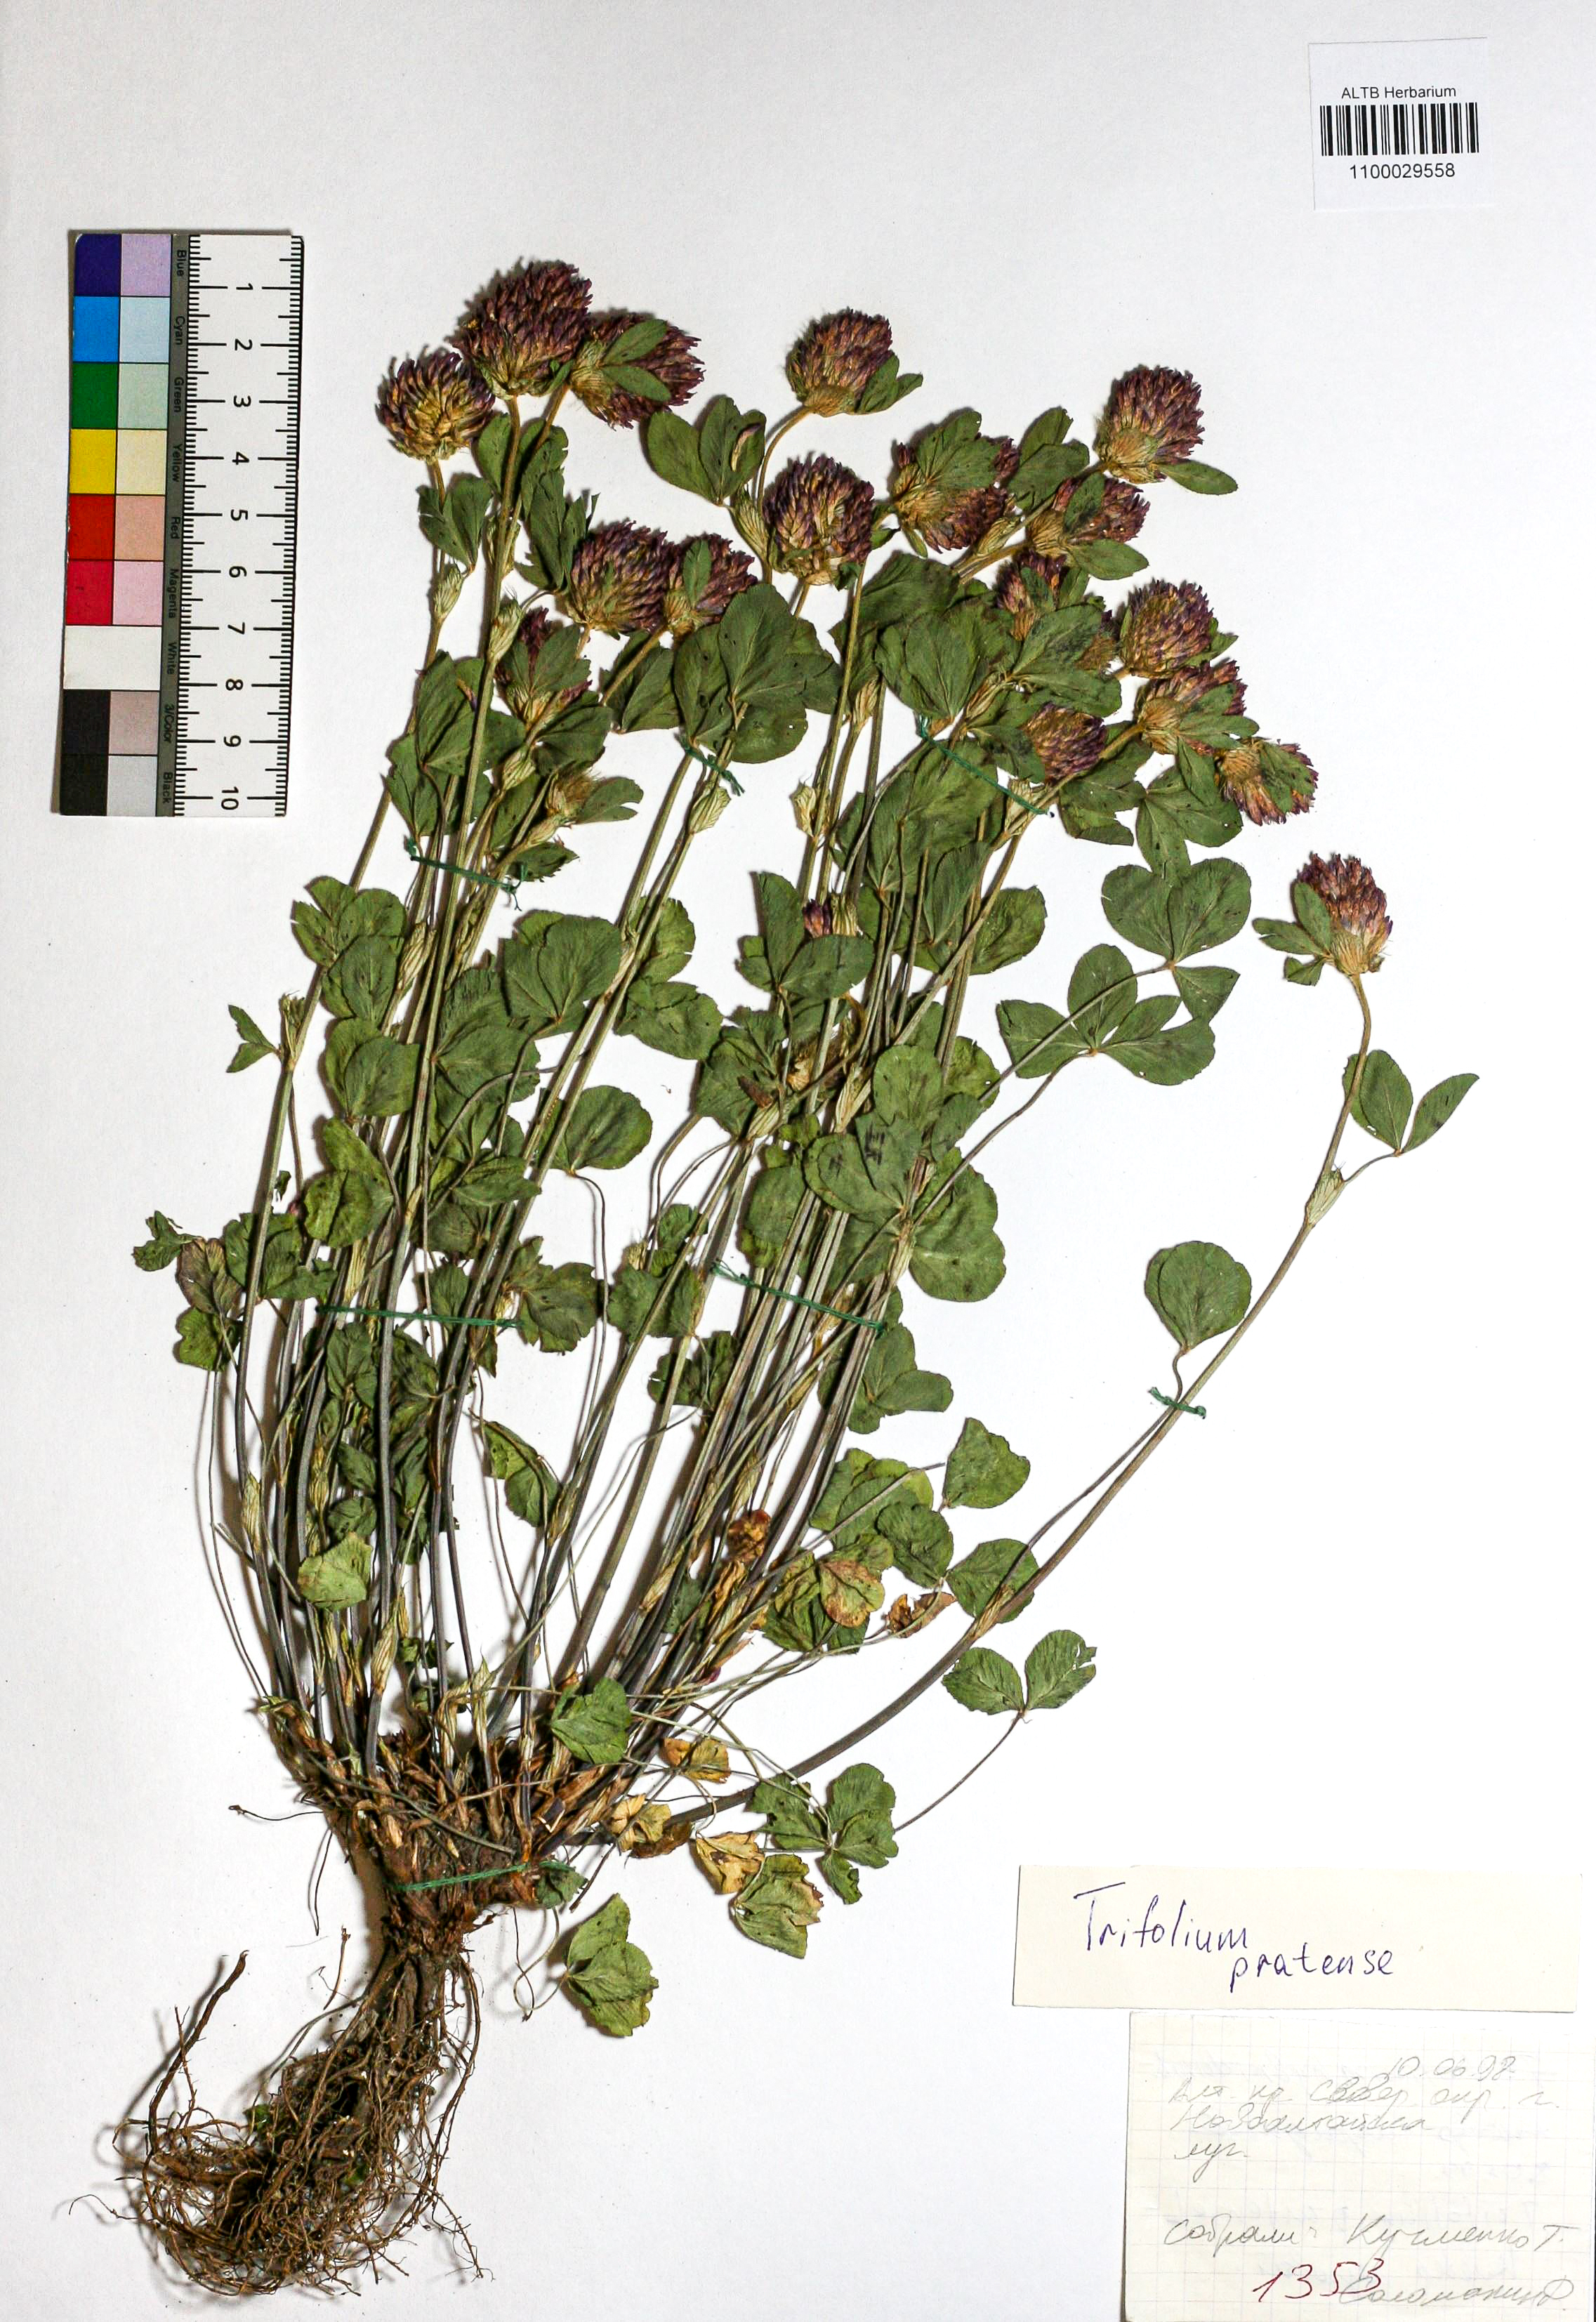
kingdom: Plantae
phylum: Tracheophyta
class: Magnoliopsida
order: Fabales
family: Fabaceae
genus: Trifolium
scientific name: Trifolium pratense
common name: Red clover
